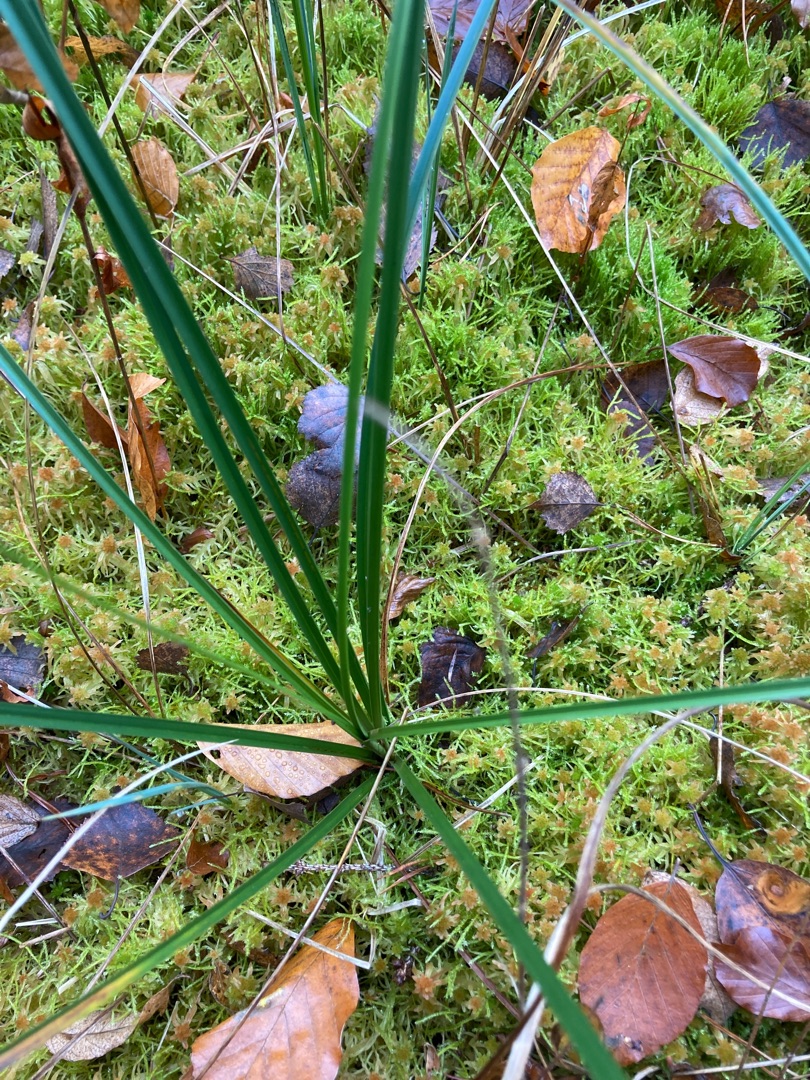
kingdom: Plantae
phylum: Tracheophyta
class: Liliopsida
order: Poales
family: Cyperaceae
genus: Eriophorum
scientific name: Eriophorum angustifolium
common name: Smalbladet kæruld
